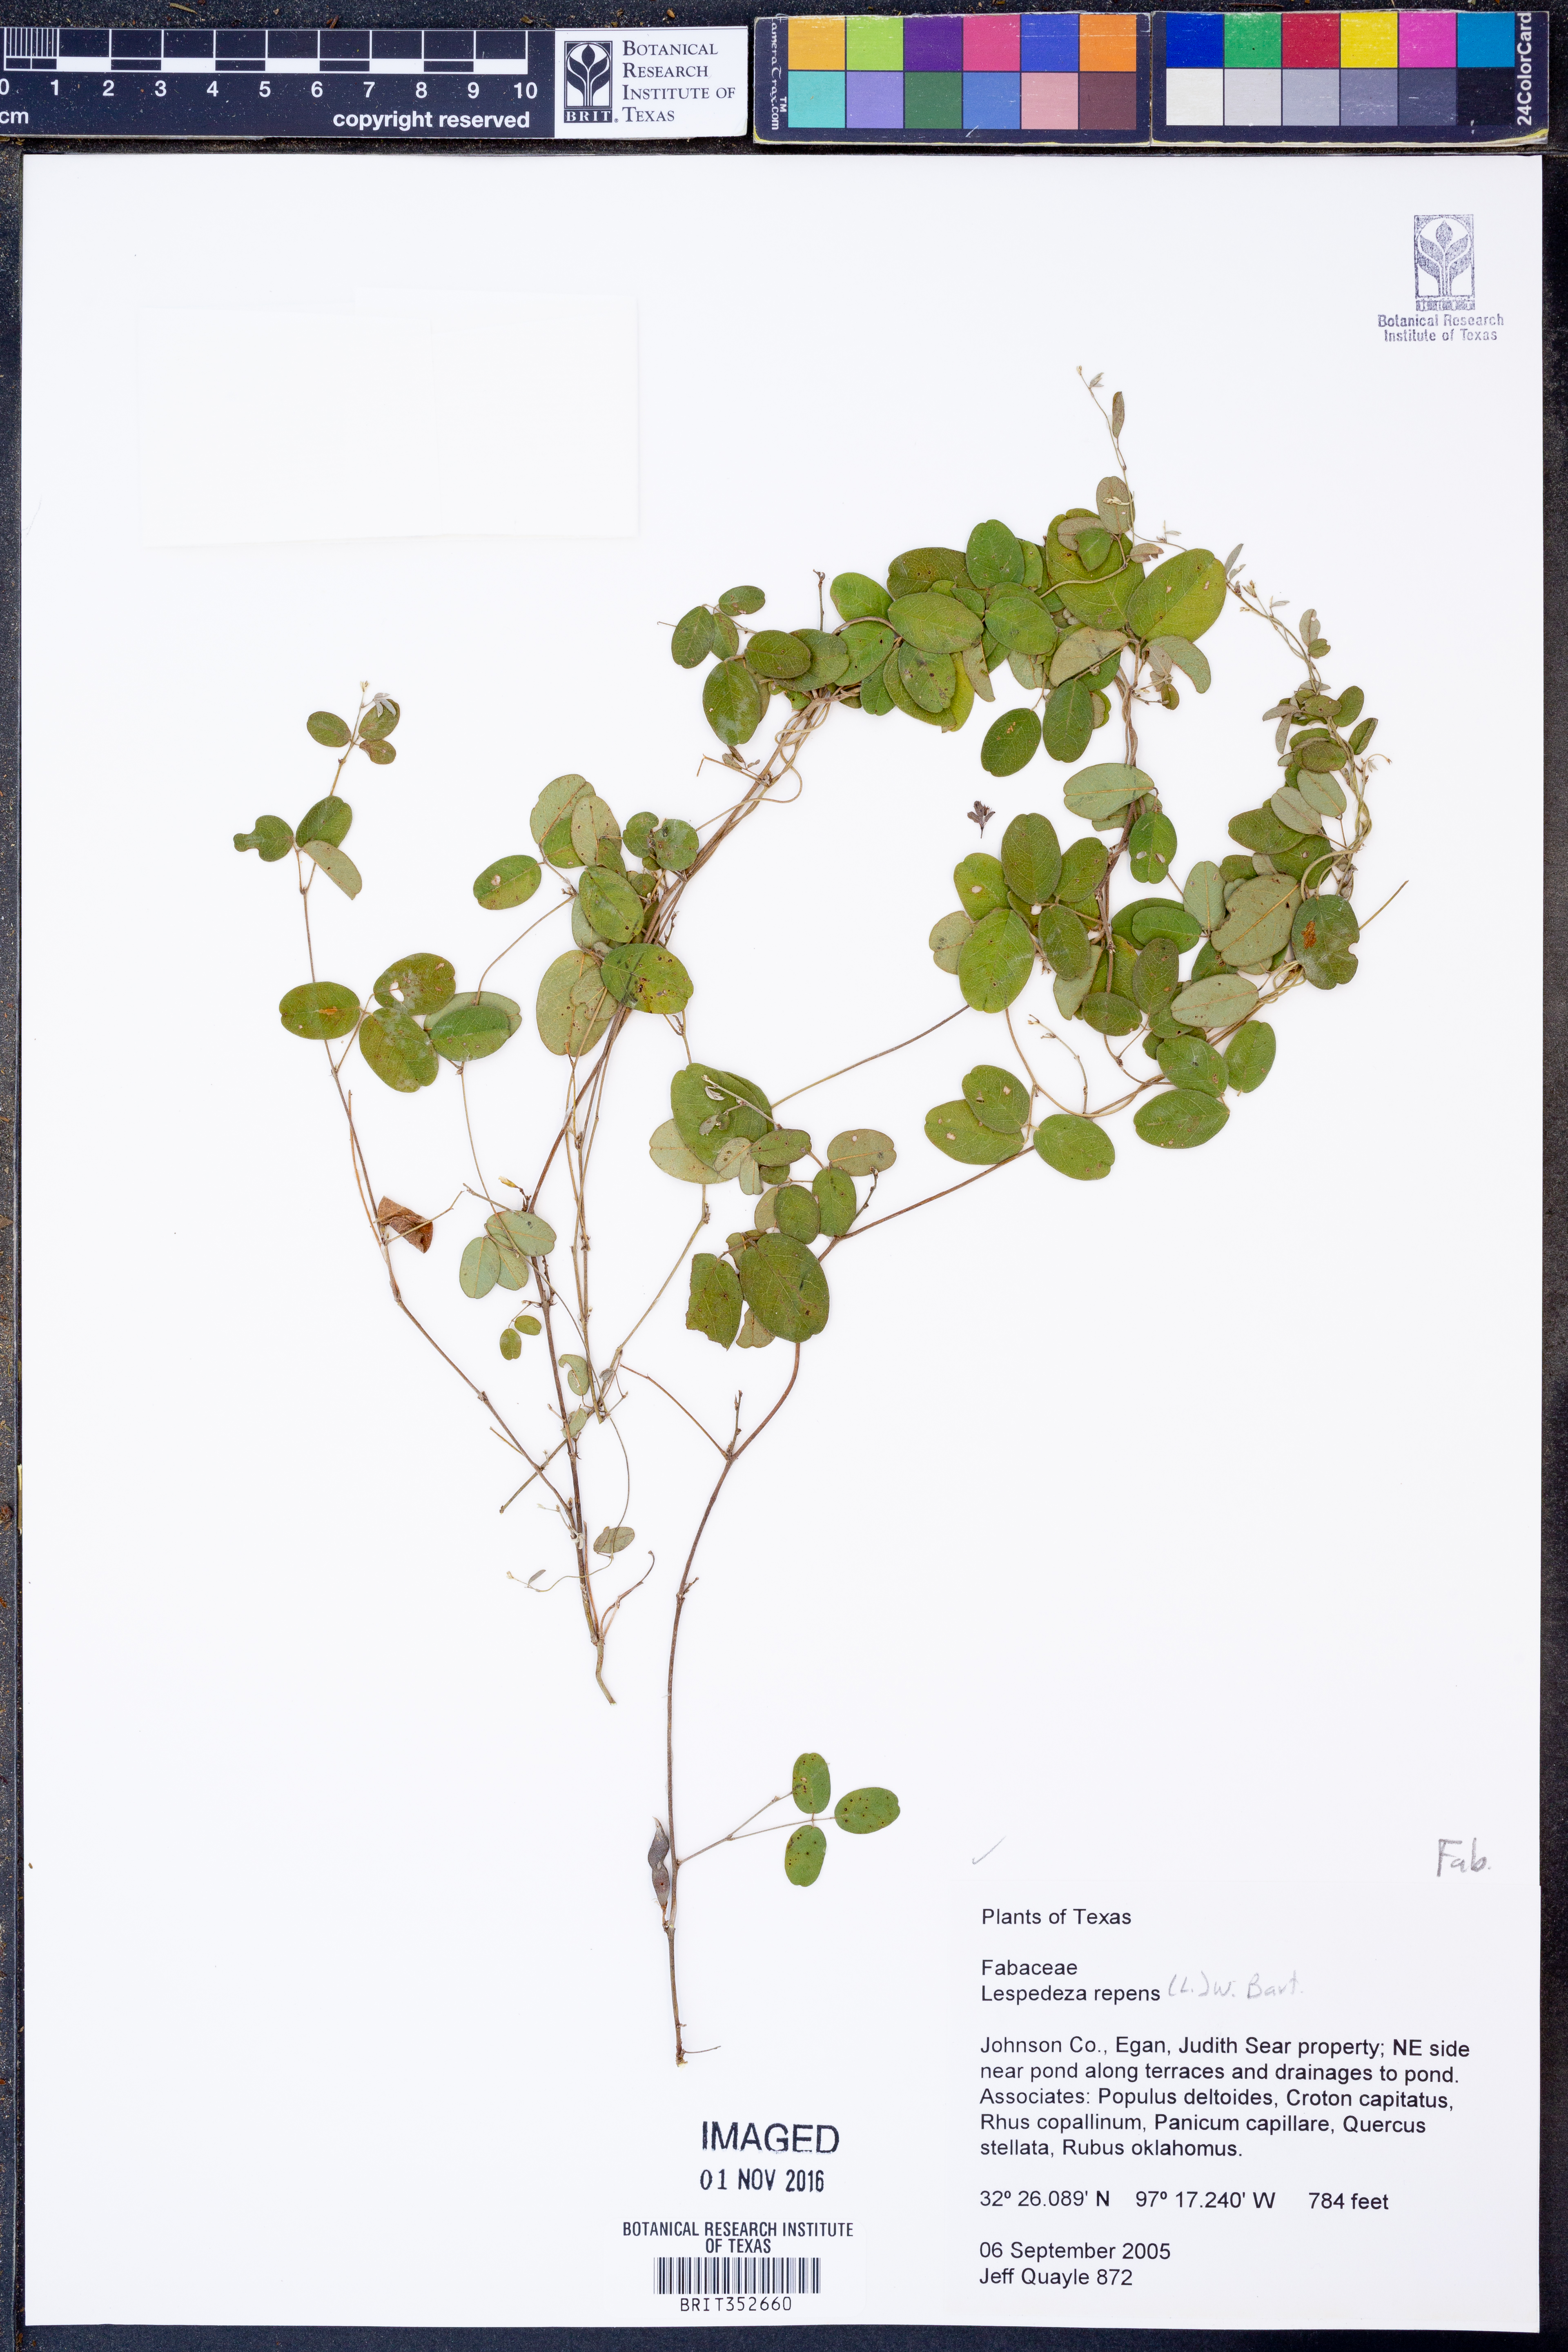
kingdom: Plantae
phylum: Tracheophyta
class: Magnoliopsida
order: Fabales
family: Fabaceae
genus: Lespedeza
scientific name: Lespedeza repens
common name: Creeping bush-clover
